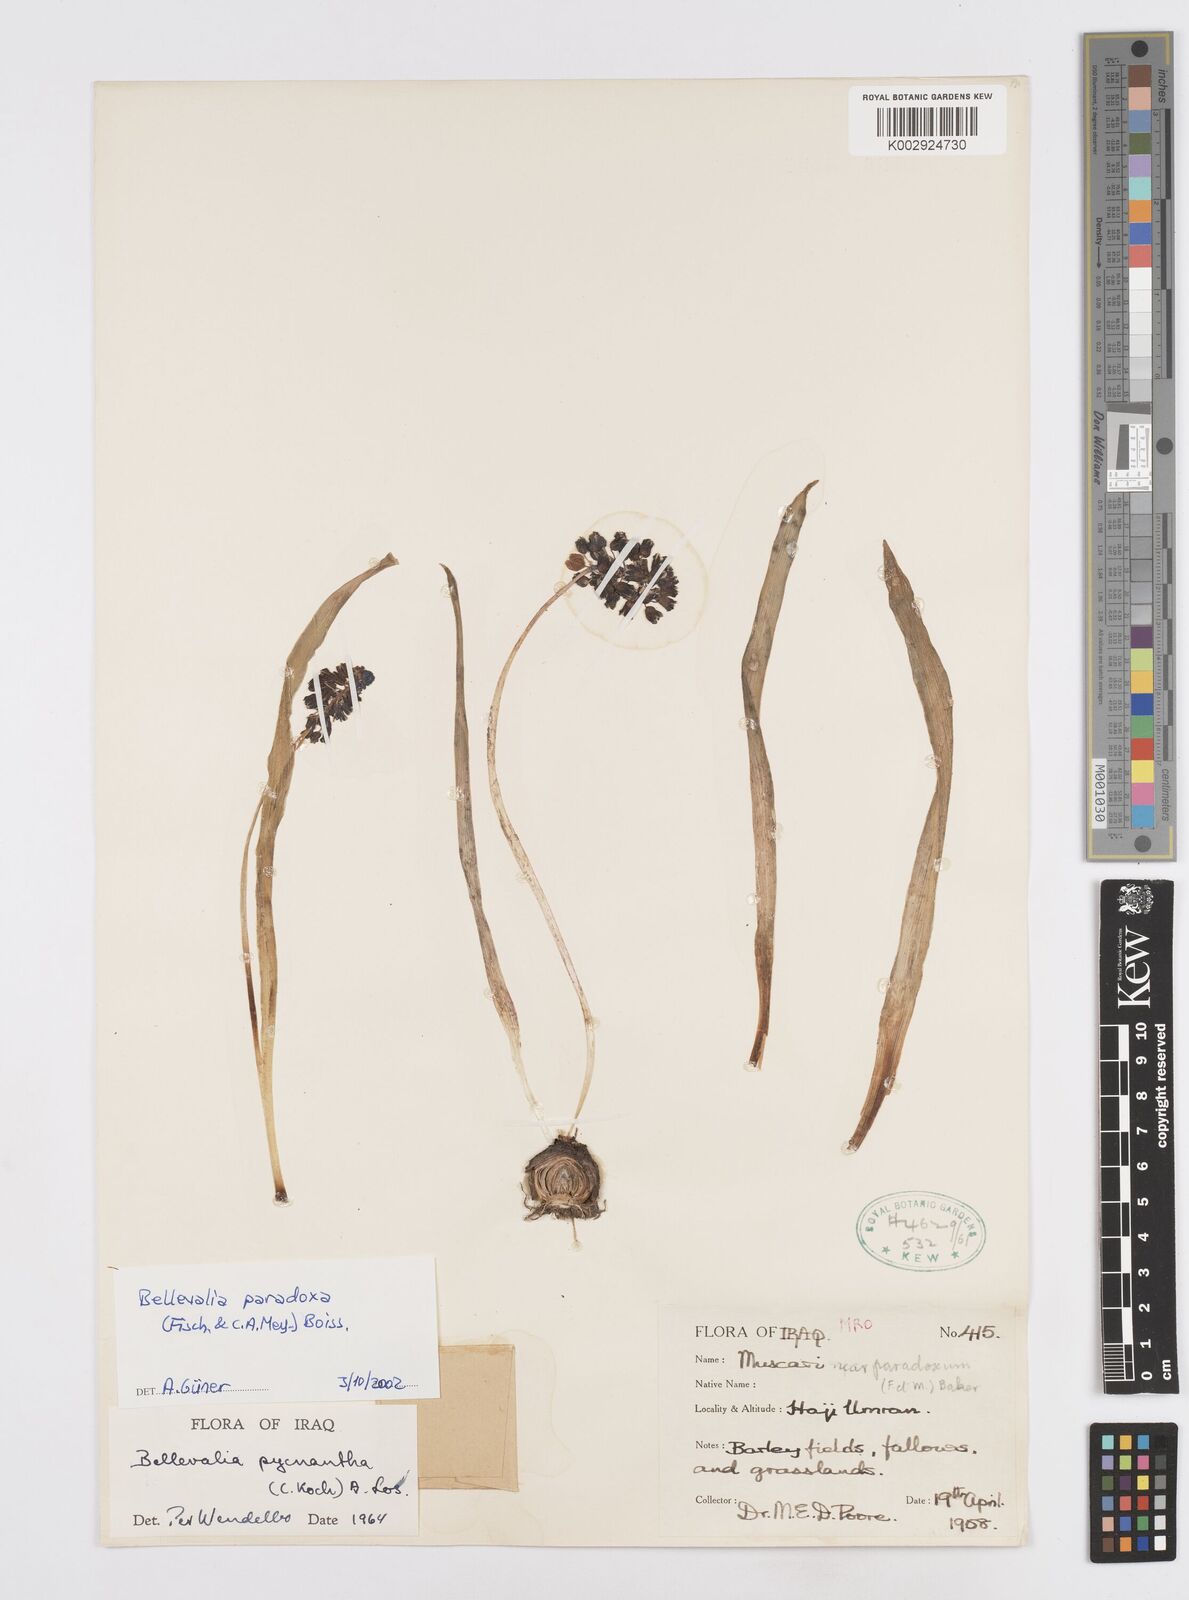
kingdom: Plantae
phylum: Tracheophyta
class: Liliopsida
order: Asparagales
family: Asparagaceae
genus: Bellevalia
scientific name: Bellevalia paradoxa
